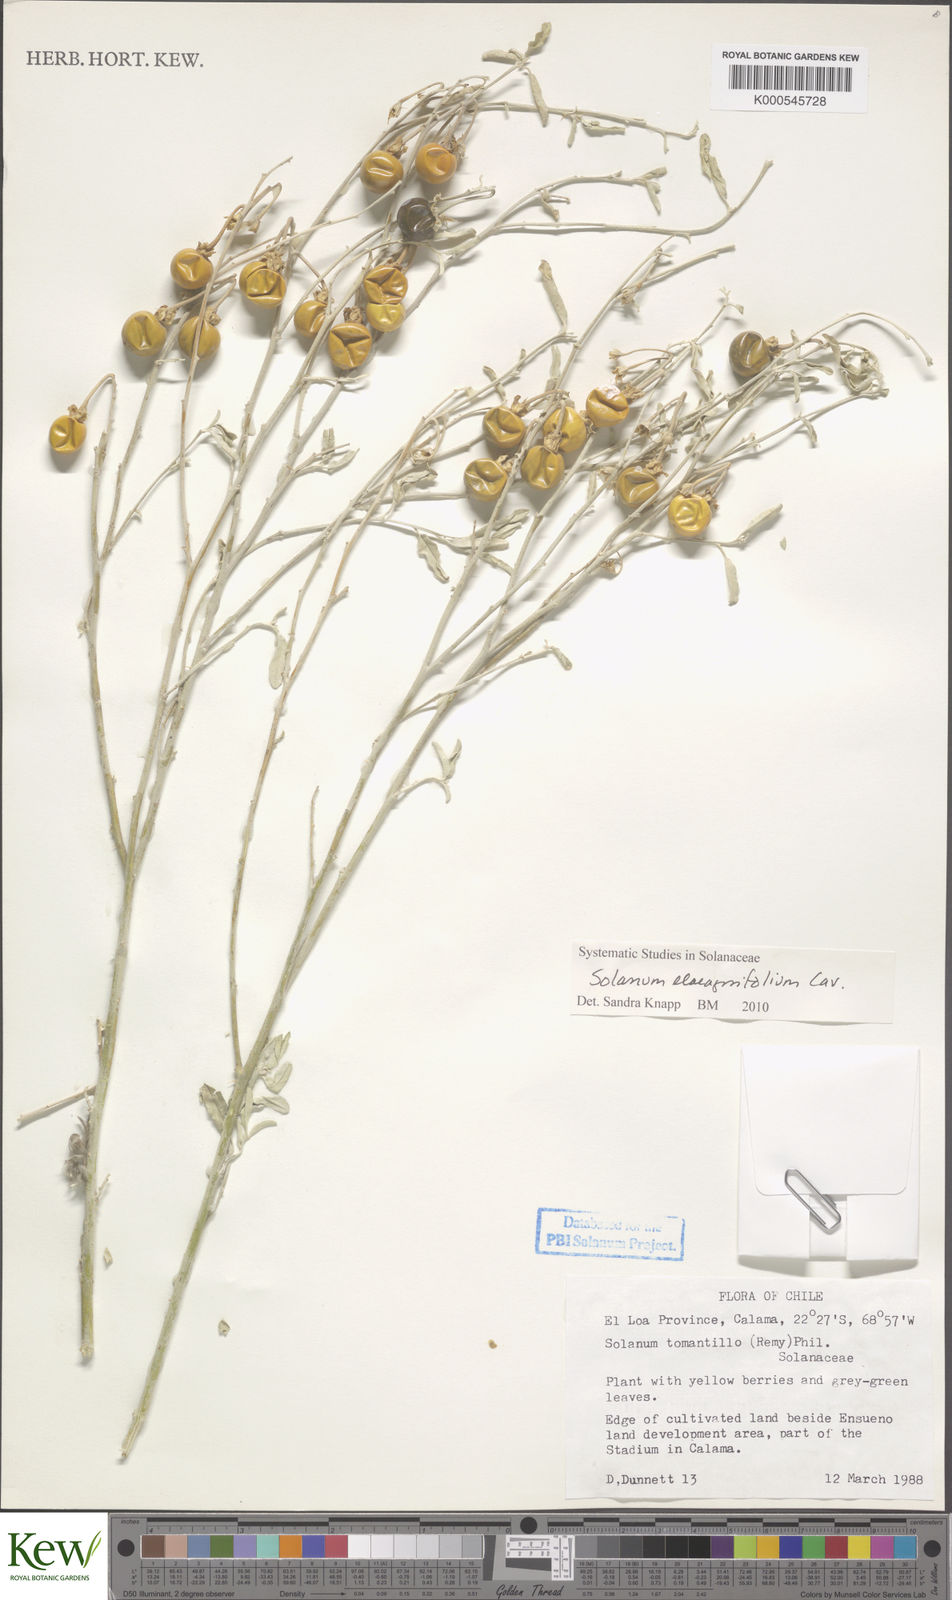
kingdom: Plantae
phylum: Tracheophyta
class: Magnoliopsida
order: Solanales
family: Solanaceae
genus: Solanum
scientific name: Solanum elaeagnifolium
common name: Silverleaf nightshade
